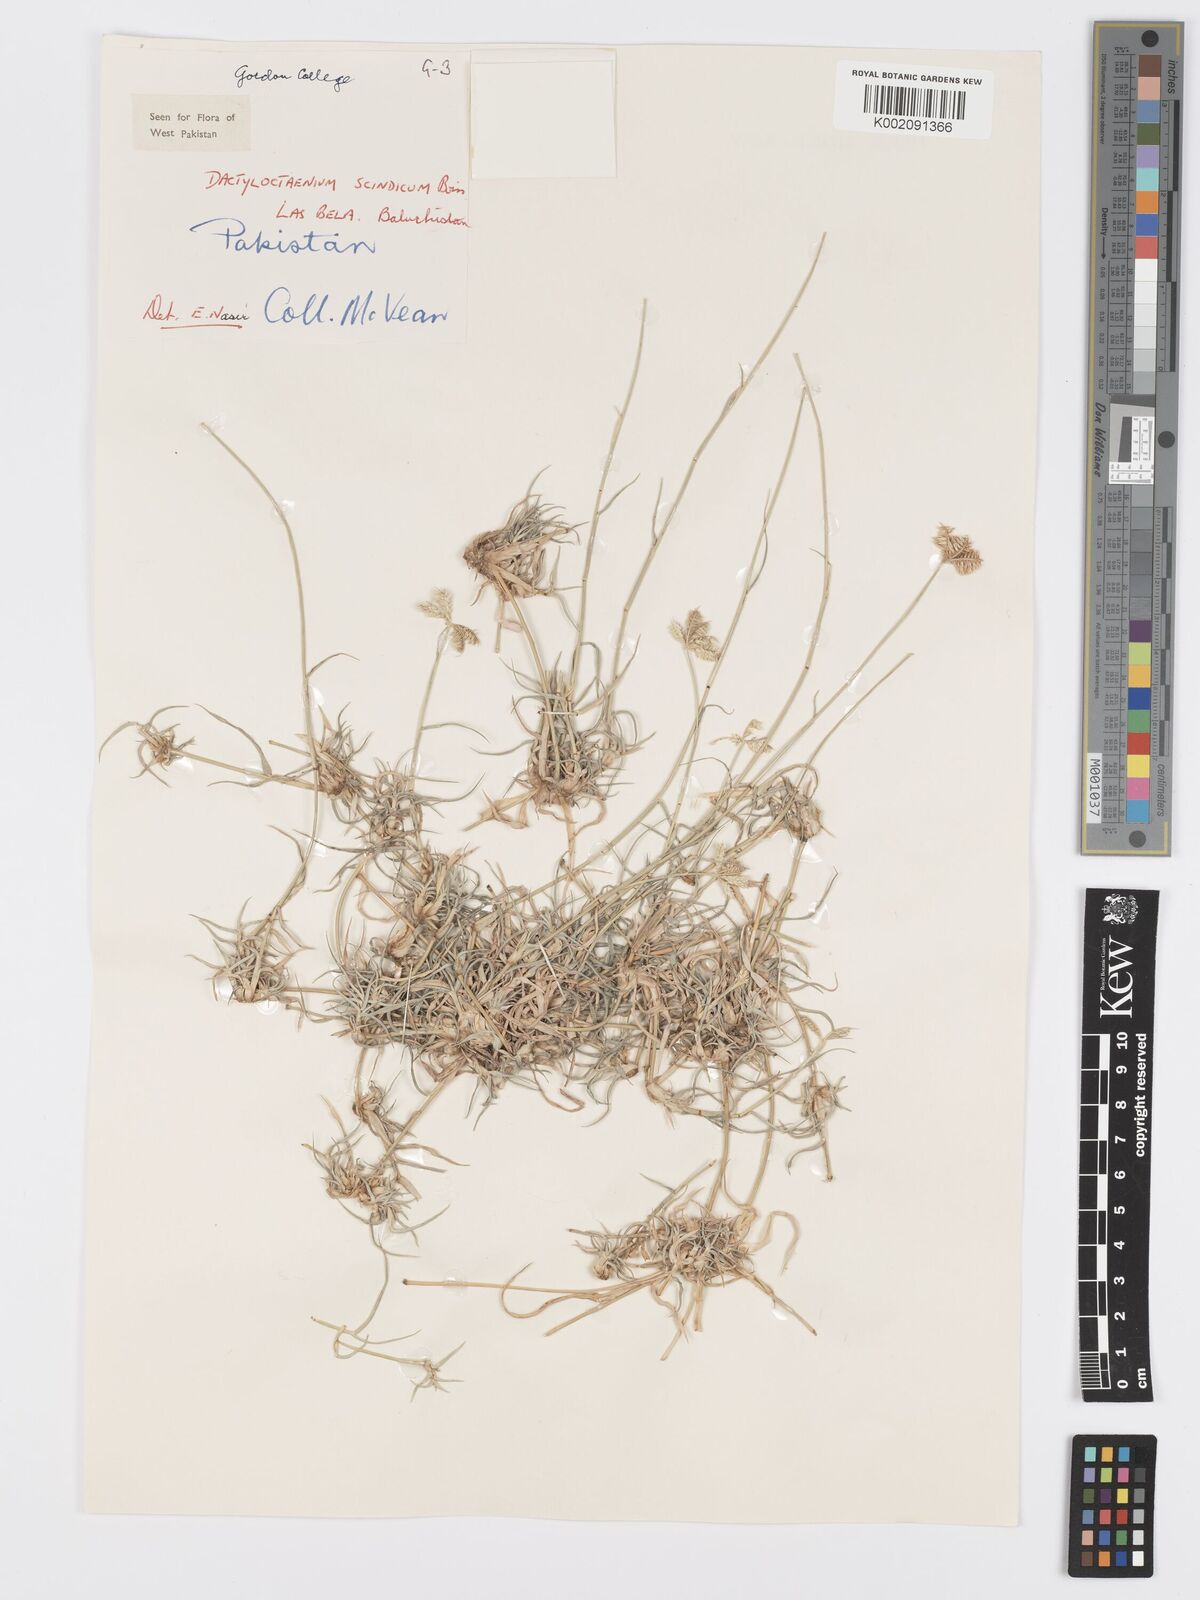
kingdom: Plantae
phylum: Tracheophyta
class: Liliopsida
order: Poales
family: Poaceae
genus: Dactyloctenium
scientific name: Dactyloctenium scindicum
